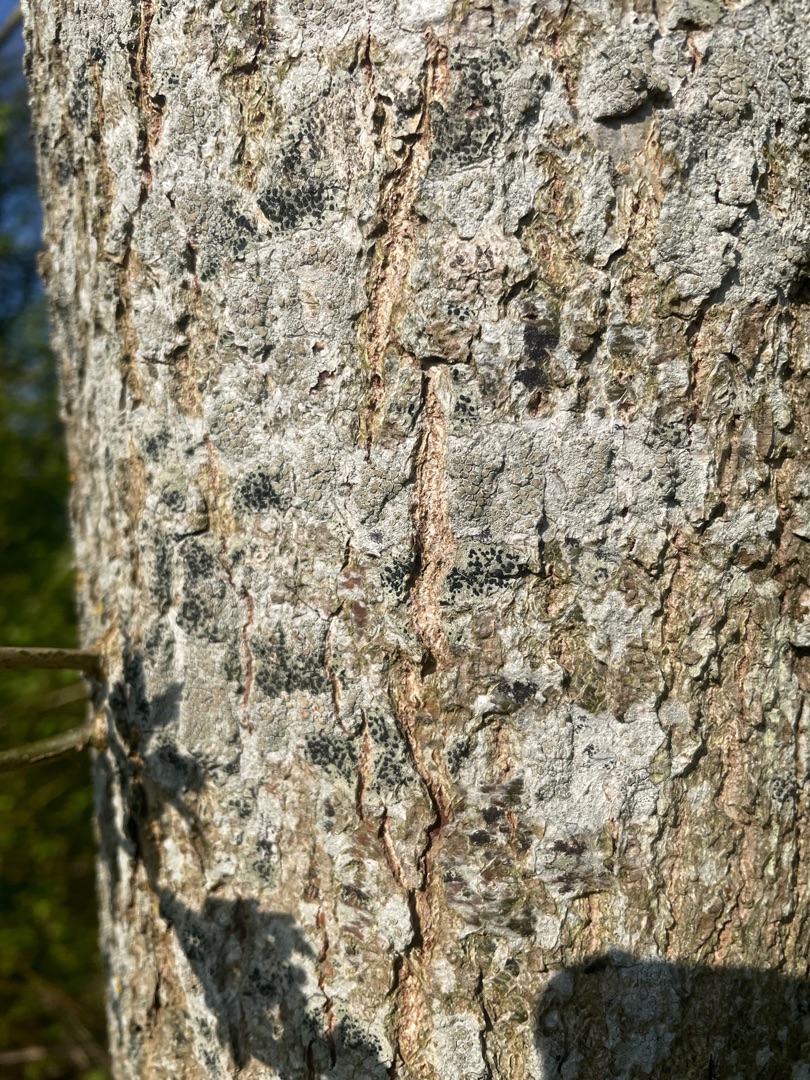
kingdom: Fungi
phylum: Ascomycota
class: Lecanoromycetes
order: Lecanorales
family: Lecanoraceae
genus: Lecidella
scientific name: Lecidella elaeochroma
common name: Grågrøn skivelav
